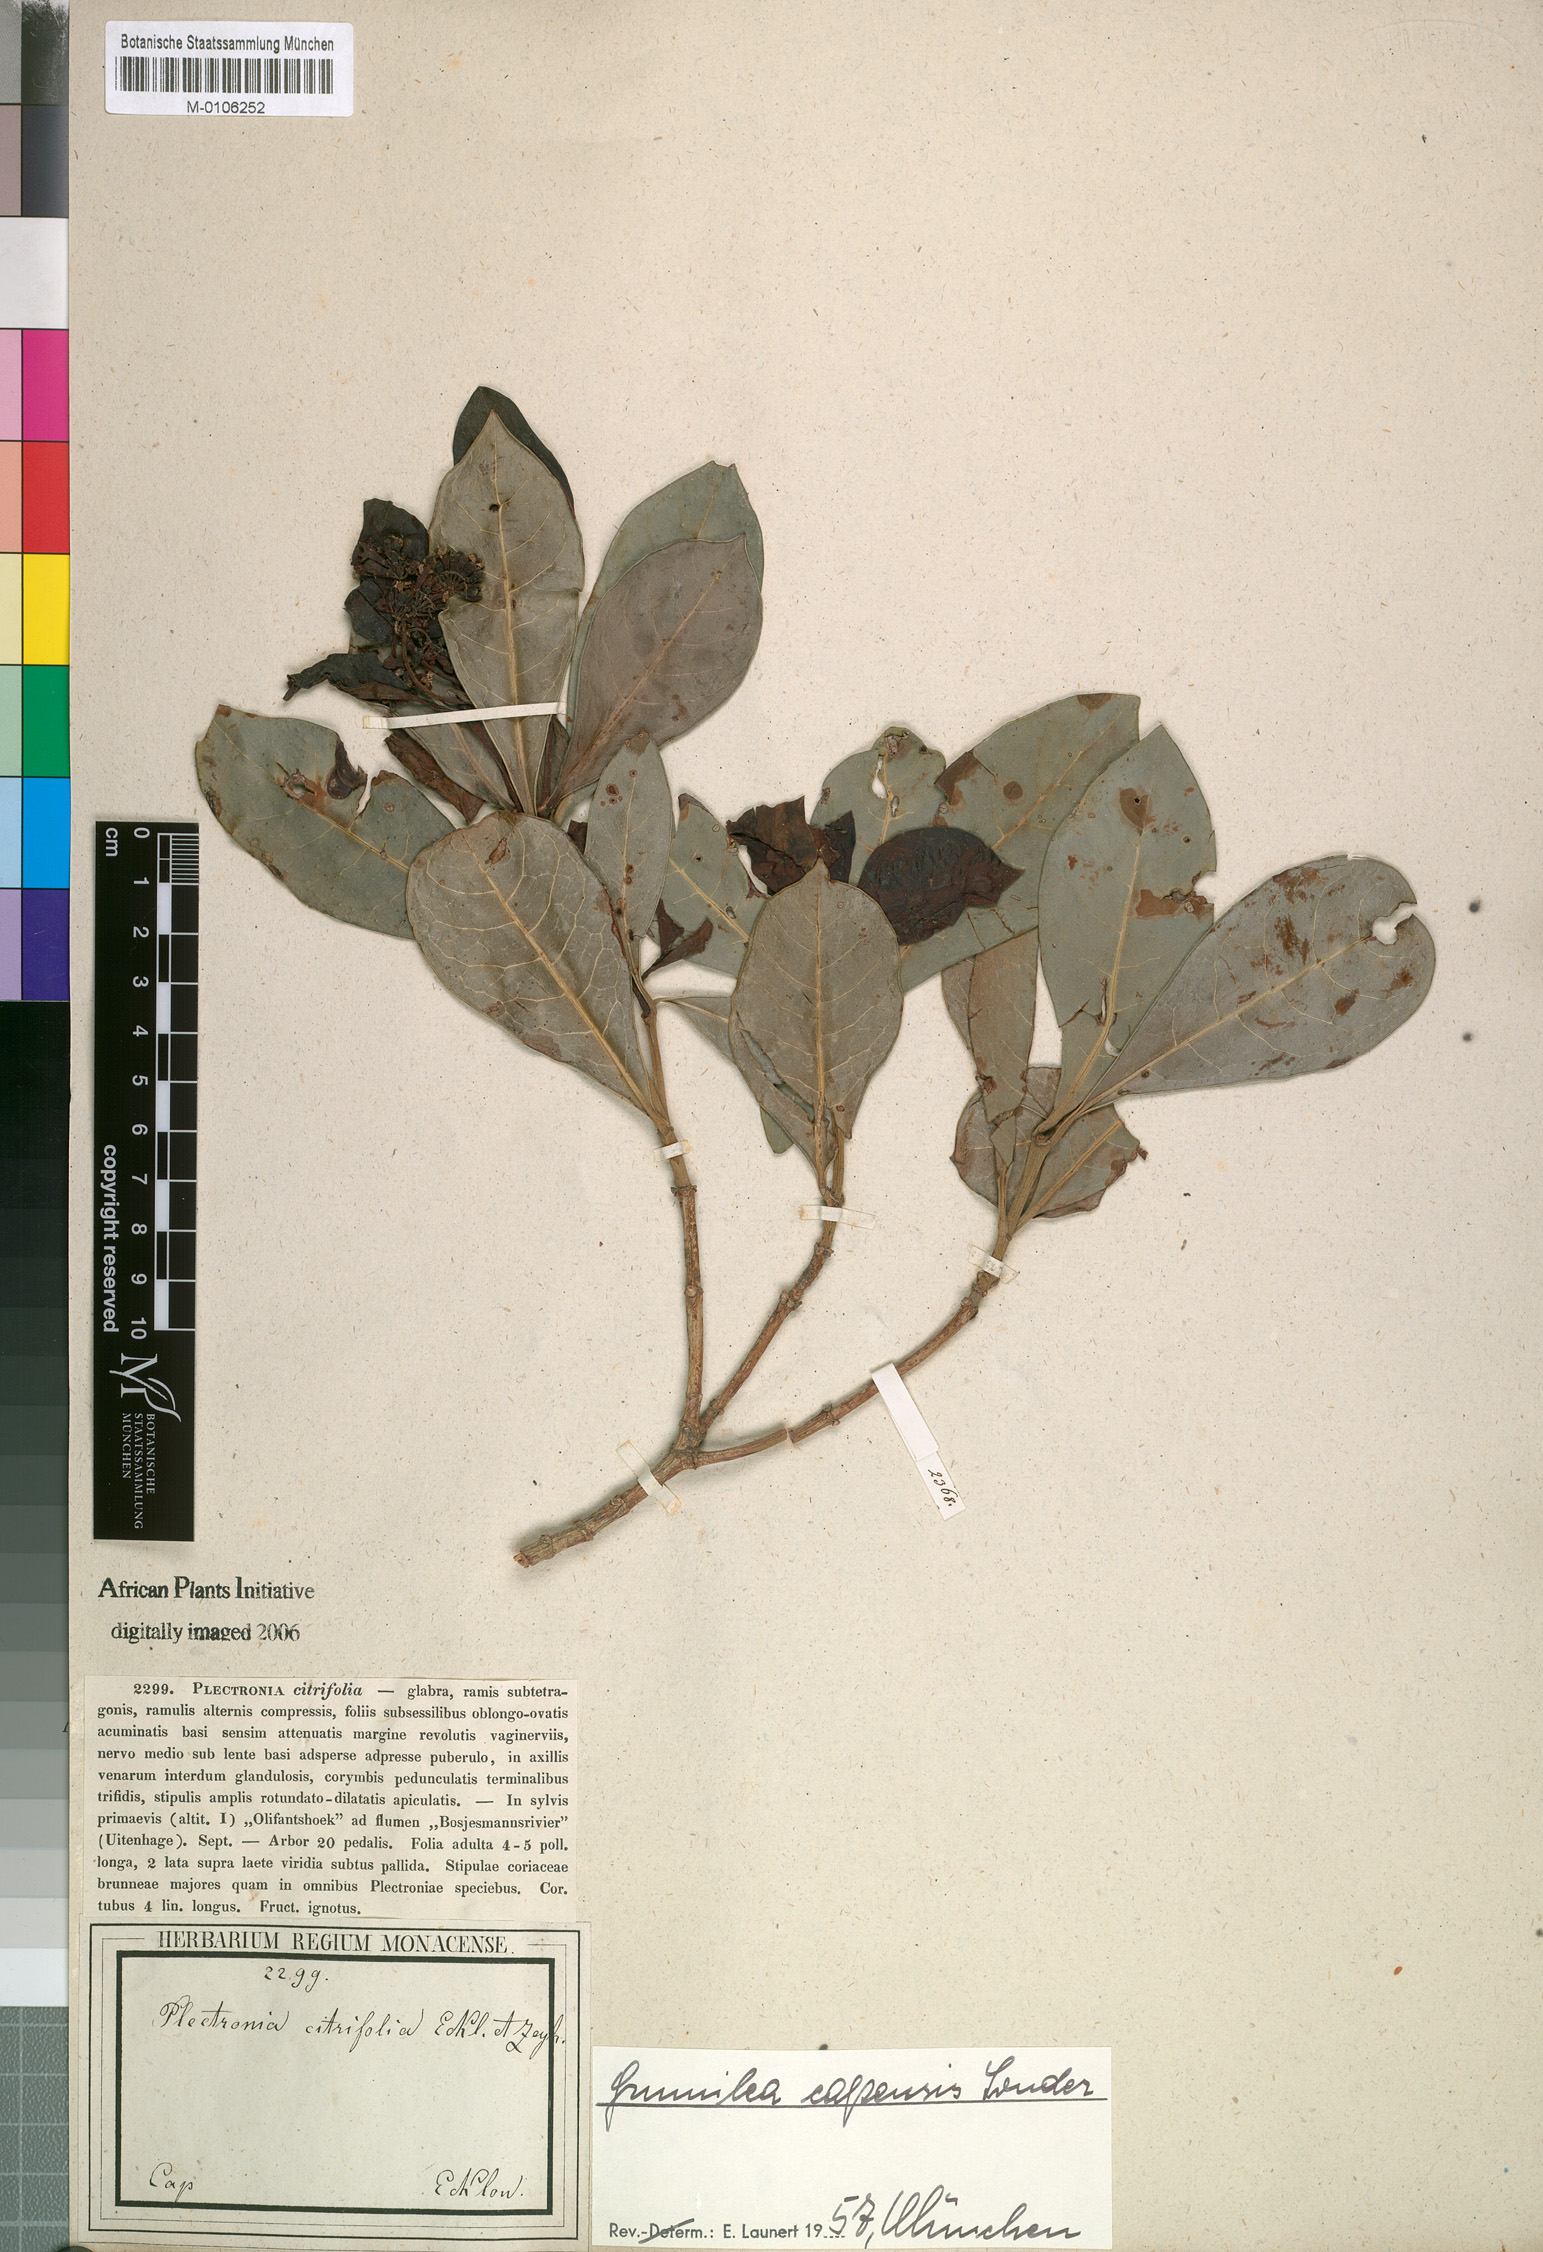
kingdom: Plantae
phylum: Tracheophyta
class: Magnoliopsida
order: Gentianales
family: Rubiaceae
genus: Psychotria
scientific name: Psychotria capensis
